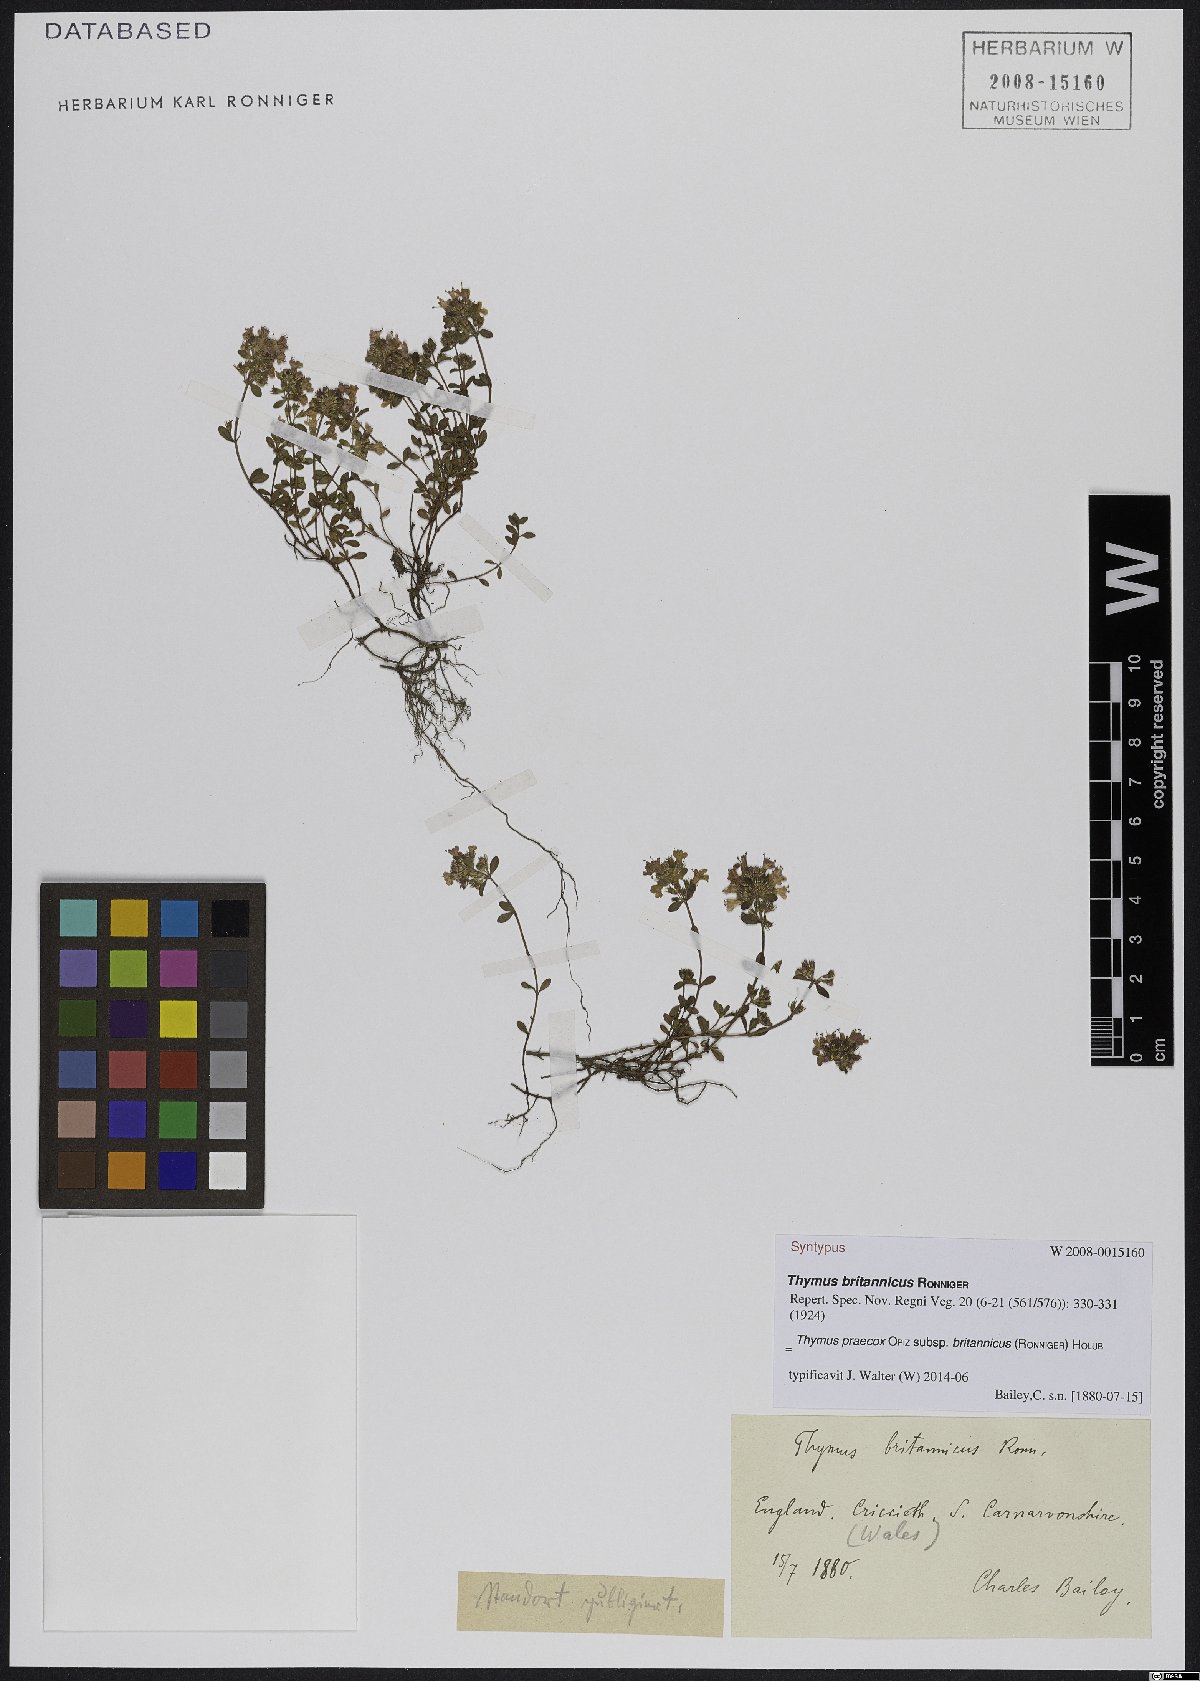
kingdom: Plantae
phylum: Tracheophyta
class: Magnoliopsida
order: Lamiales
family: Lamiaceae
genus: Thymus
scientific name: Thymus praecox
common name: Wild thyme
